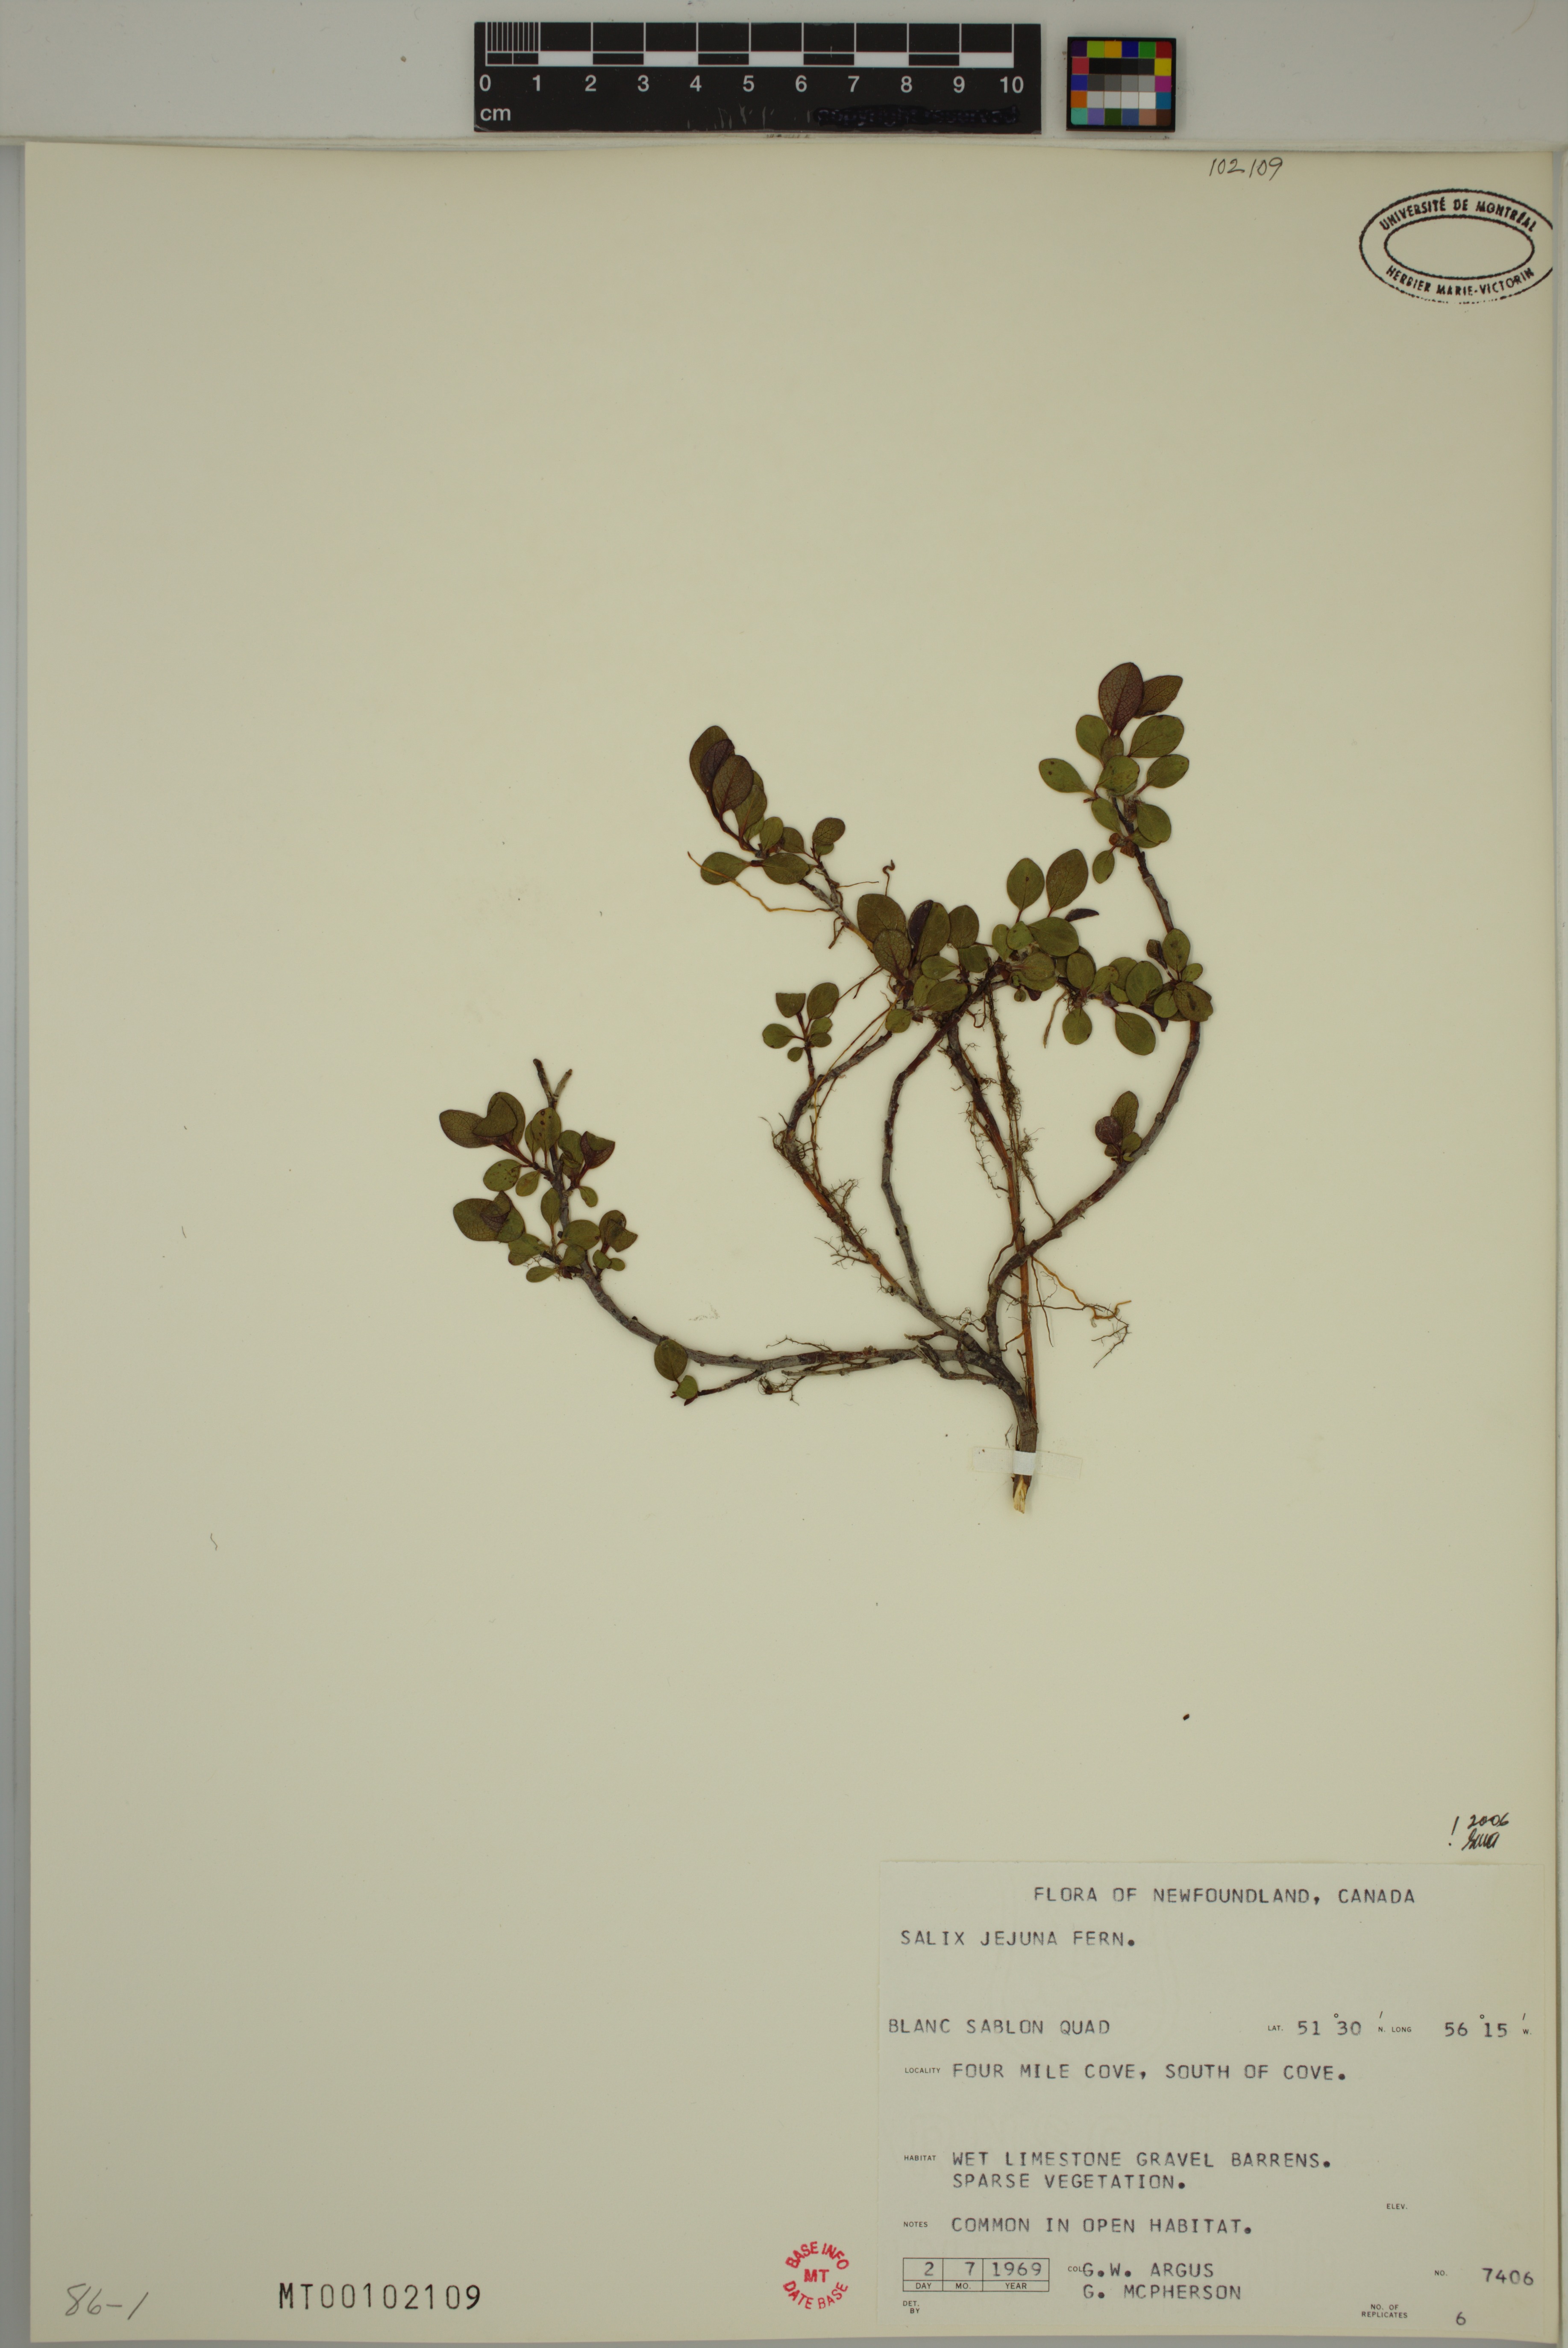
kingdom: Plantae
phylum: Tracheophyta
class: Magnoliopsida
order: Malpighiales
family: Salicaceae
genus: Salix
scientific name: Salix jejuna
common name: Belle isle dwarf willow
